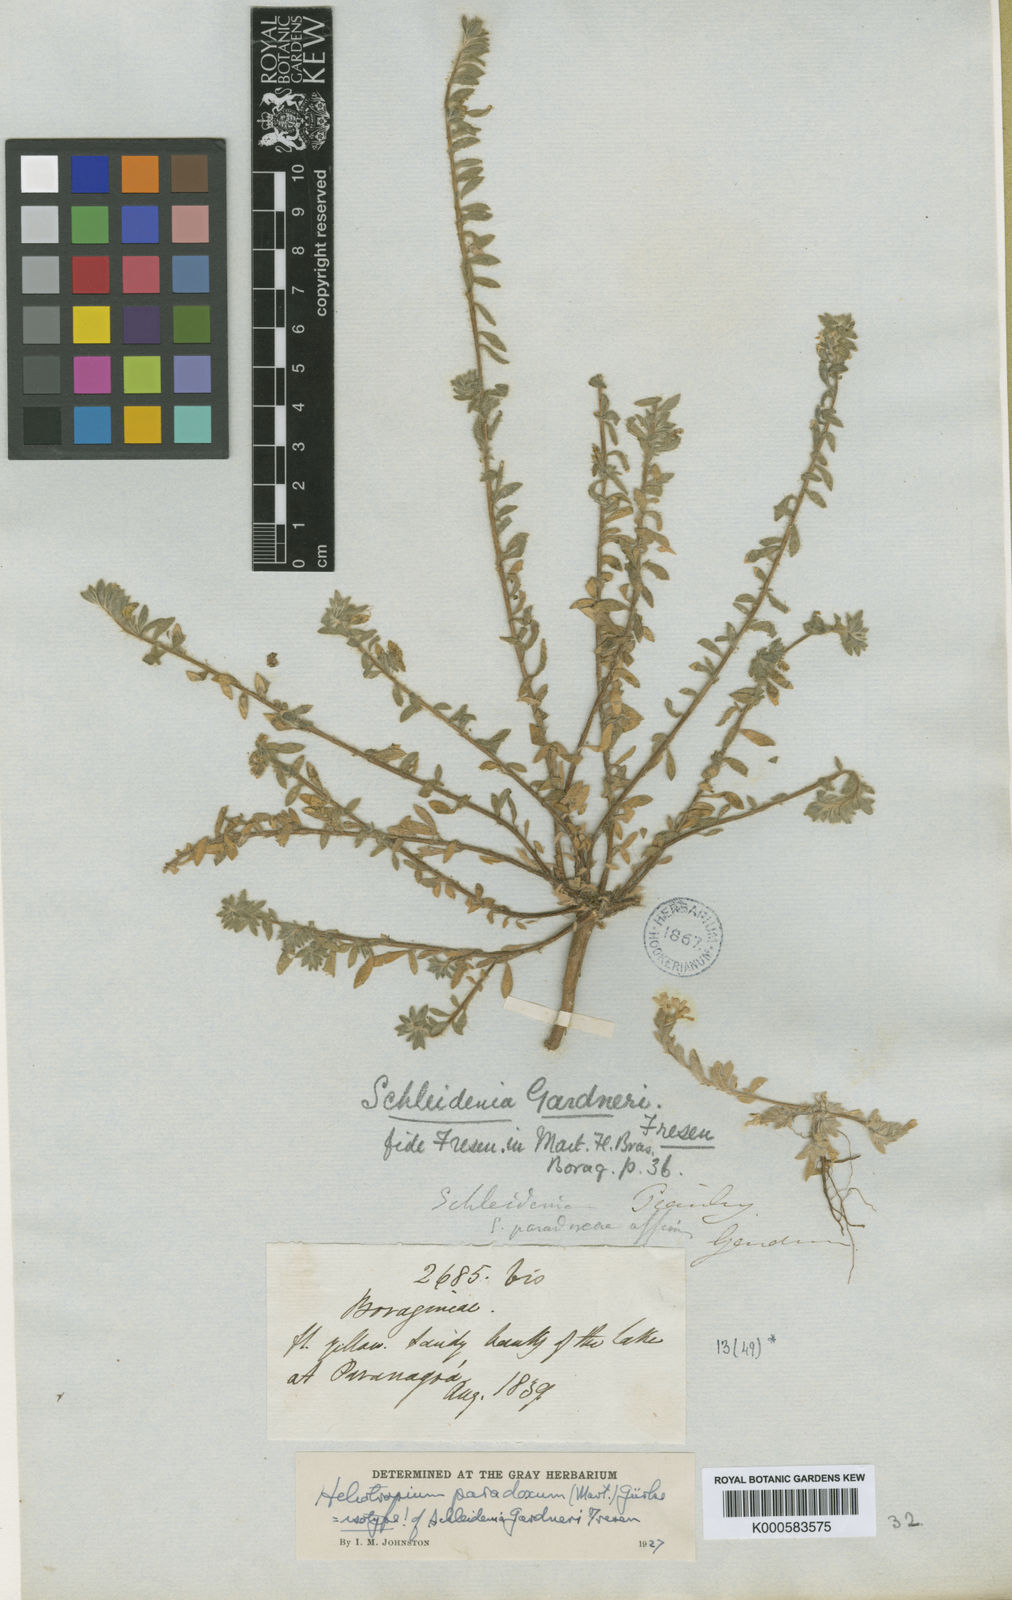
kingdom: Plantae
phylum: Tracheophyta
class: Magnoliopsida
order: Boraginales
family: Heliotropiaceae
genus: Heliotropium
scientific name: Heliotropium
